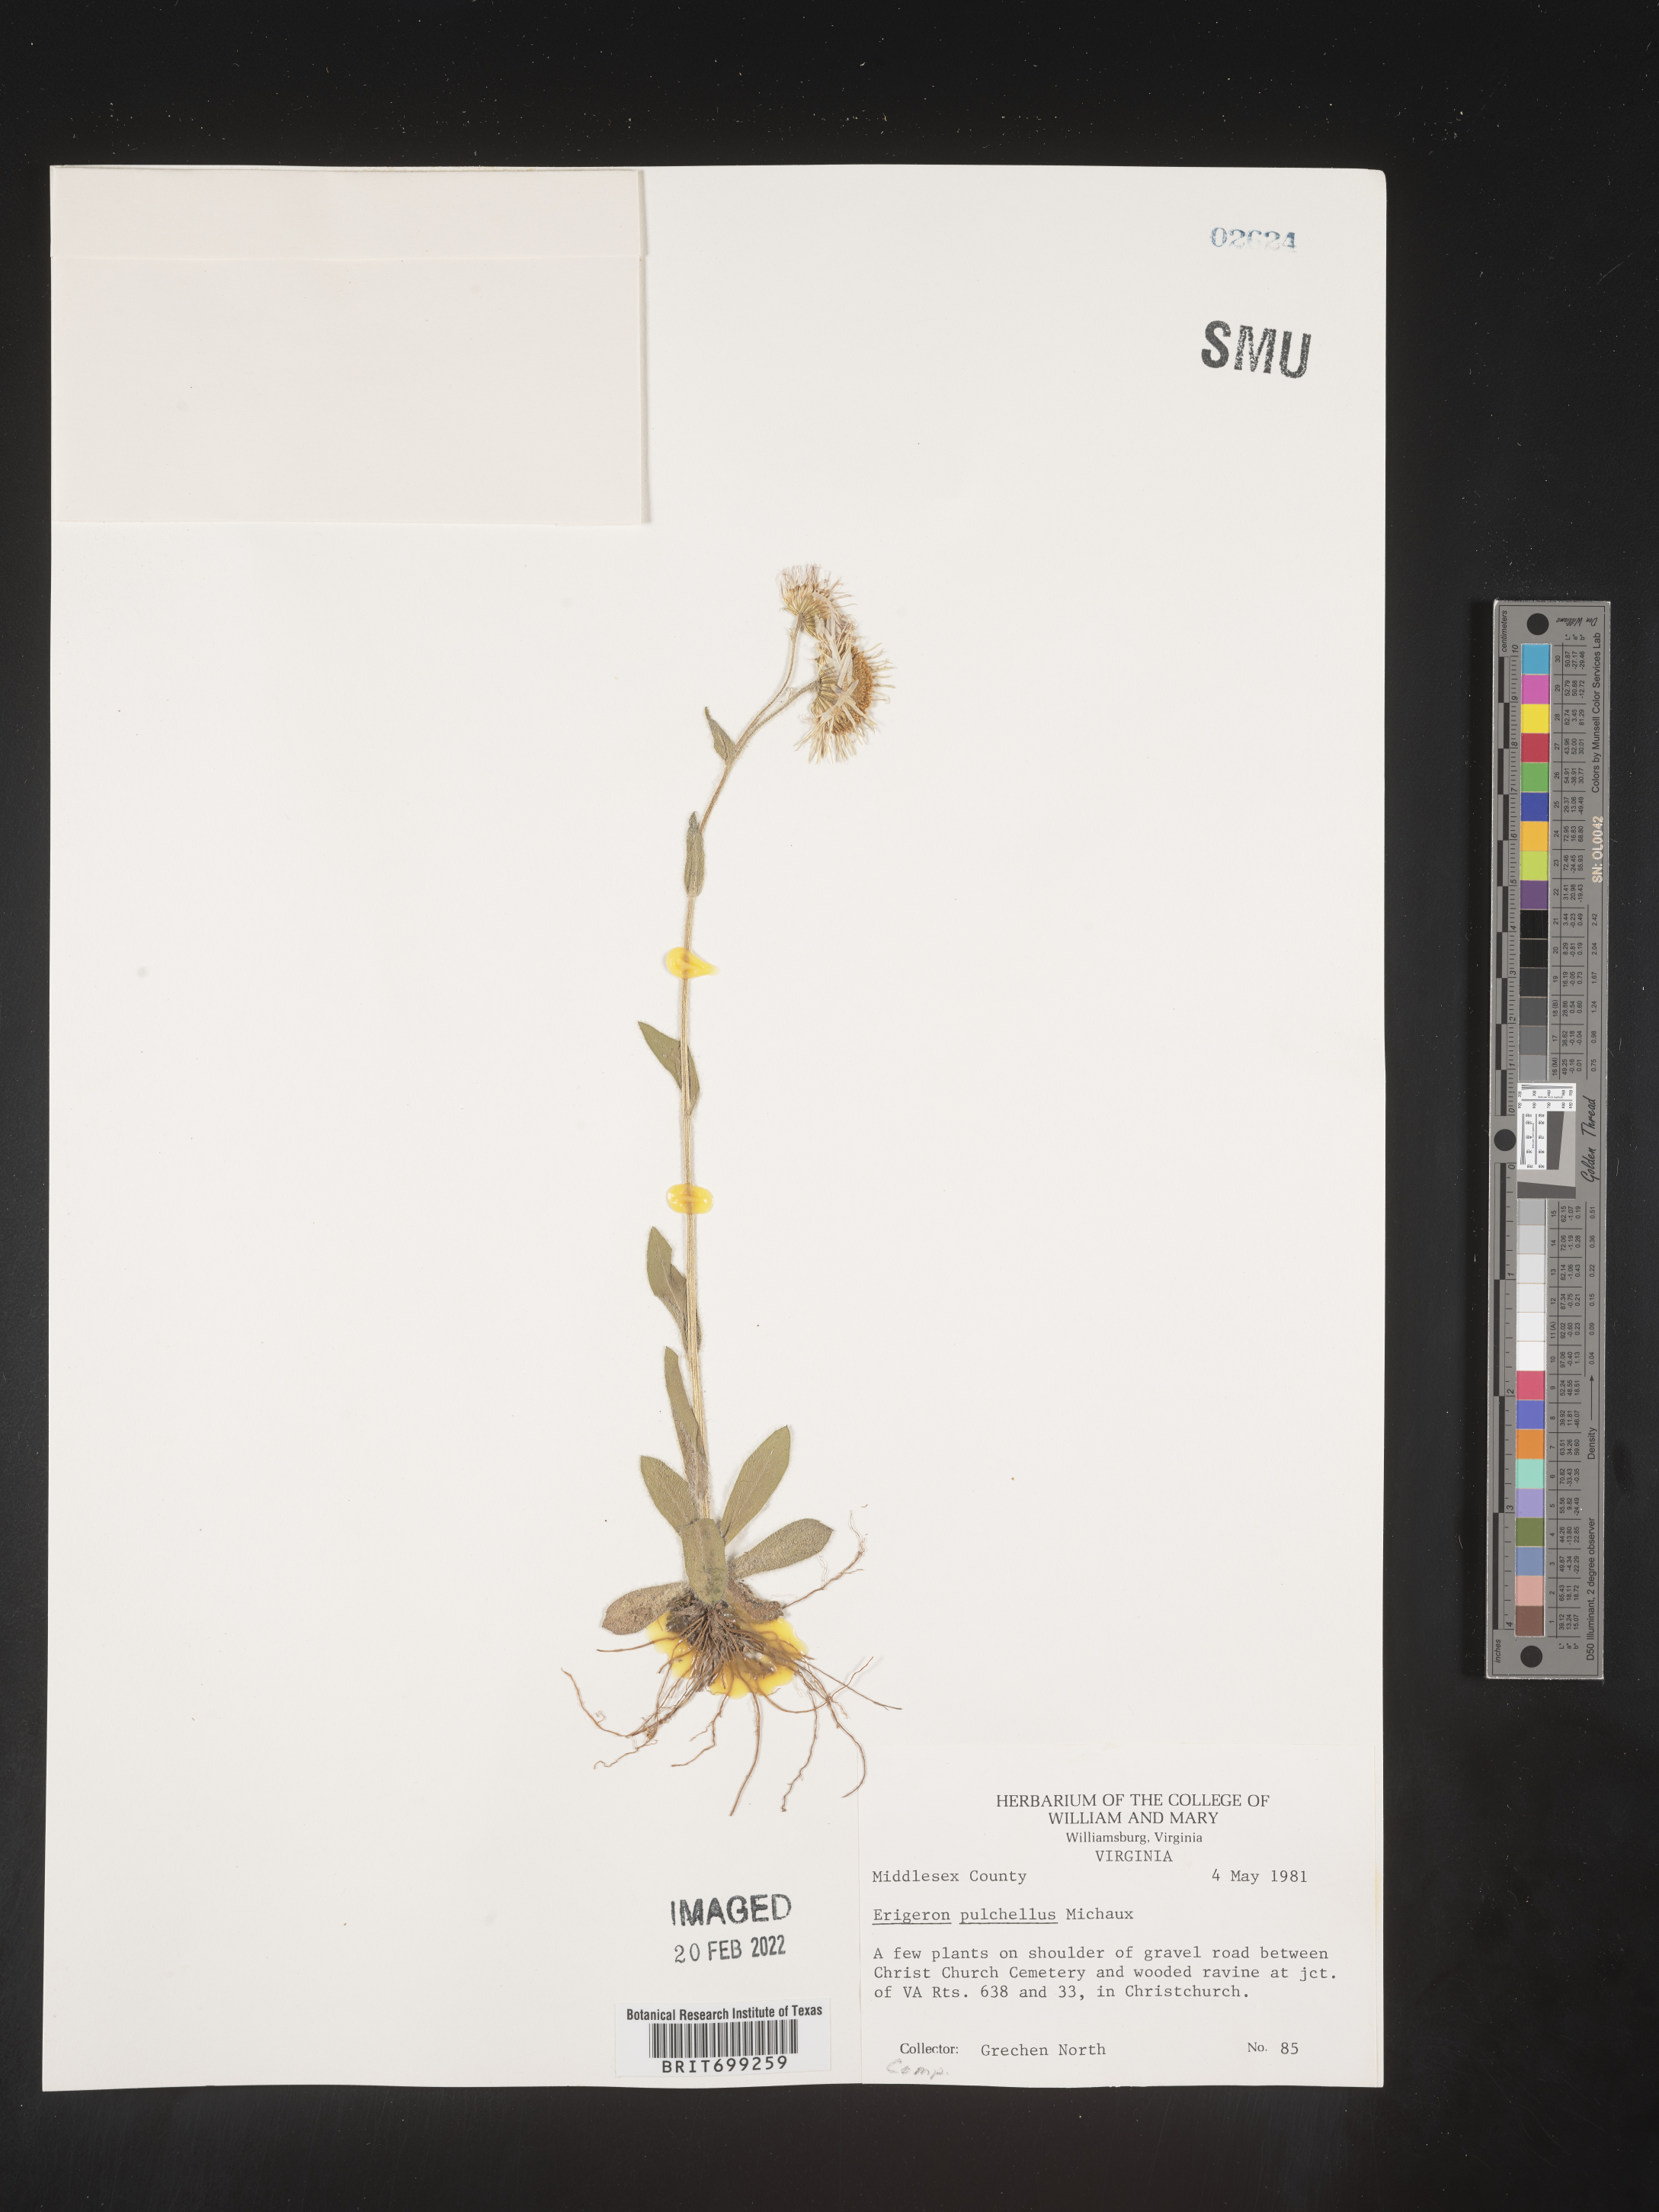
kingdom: Plantae
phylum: Tracheophyta
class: Magnoliopsida
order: Asterales
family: Asteraceae
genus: Erigeron
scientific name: Erigeron pulchellus
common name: Hairy fleabane
